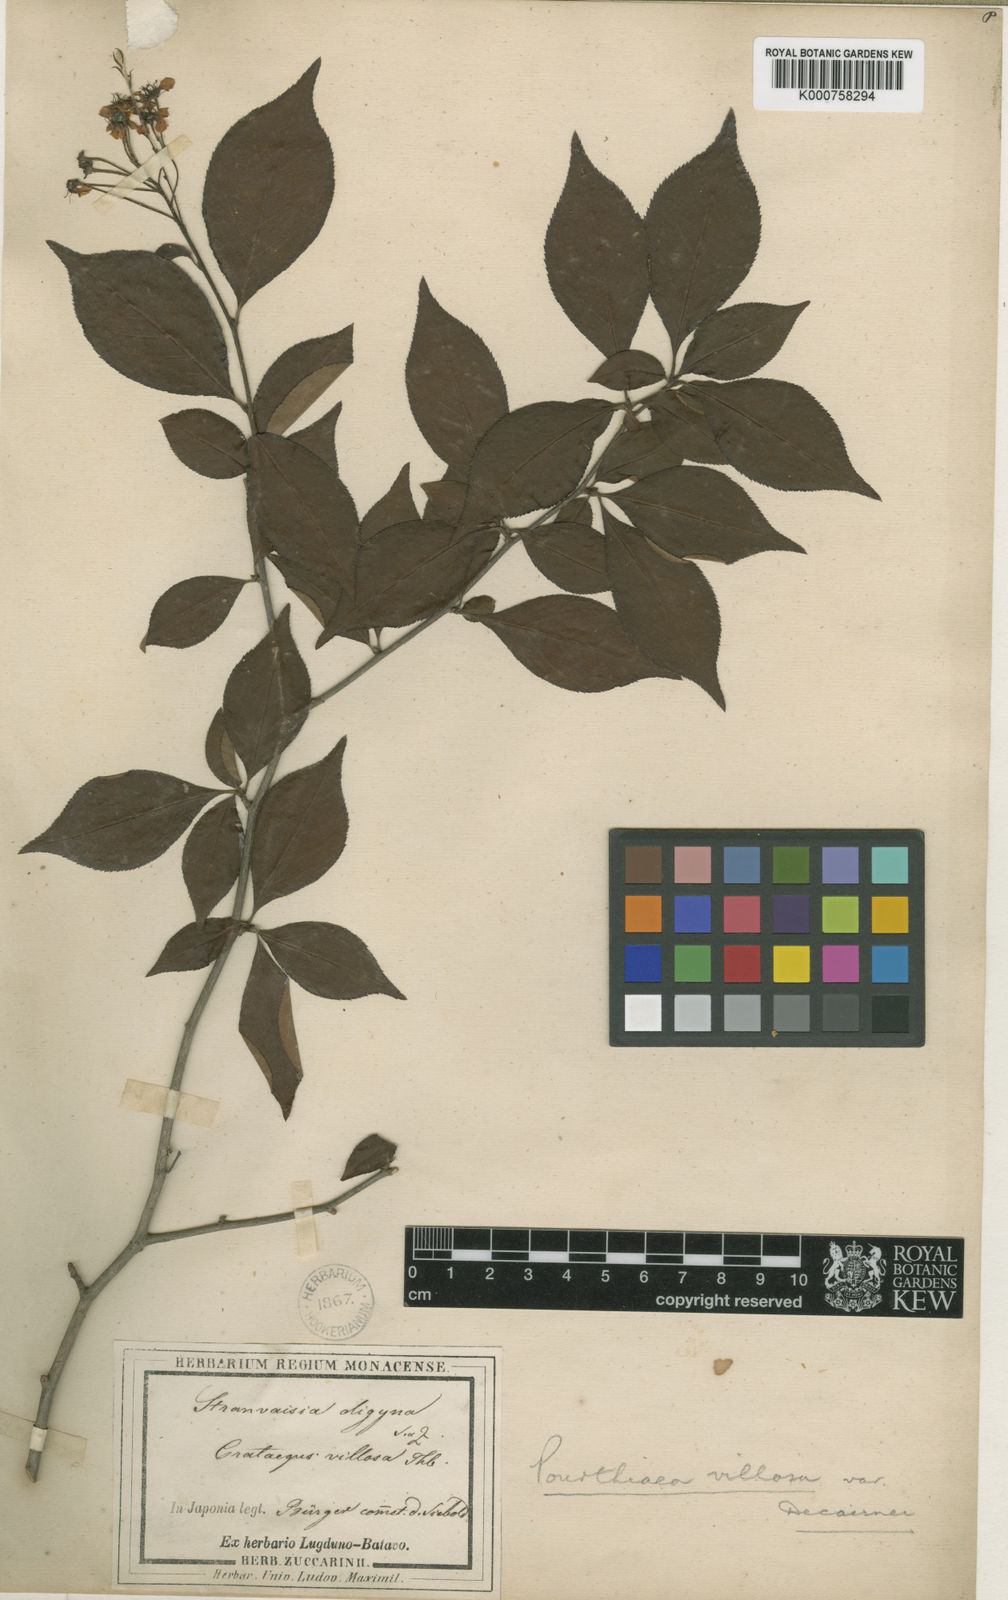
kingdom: Plantae
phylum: Tracheophyta
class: Magnoliopsida
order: Rosales
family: Rosaceae
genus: Pourthiaea
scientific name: Pourthiaea villosa
